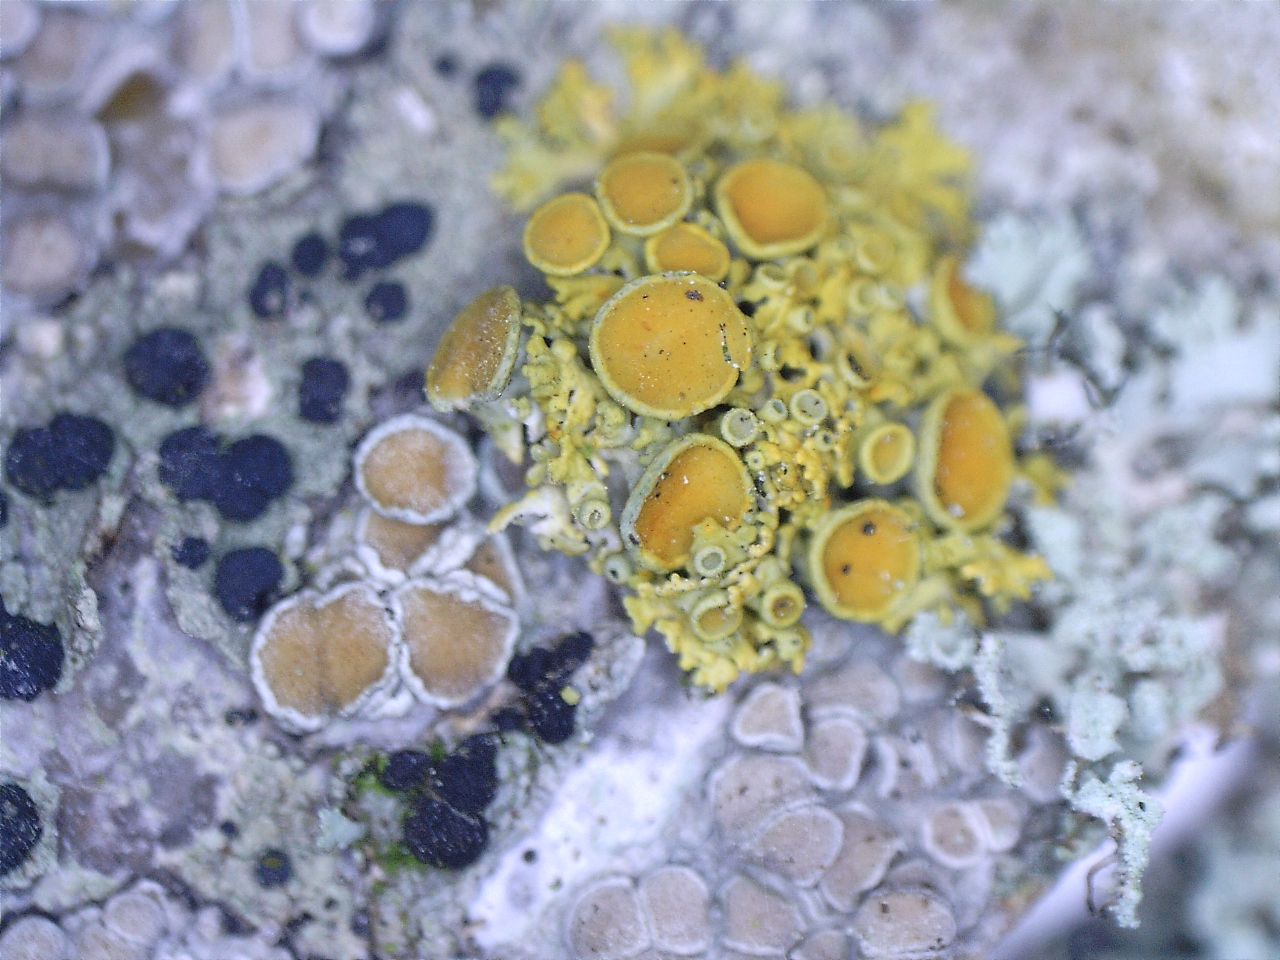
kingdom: Fungi
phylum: Ascomycota
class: Lecanoromycetes
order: Teloschistales
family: Teloschistaceae
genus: Polycauliona
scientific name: Polycauliona polycarpa
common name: mangefrugtet orangelav
